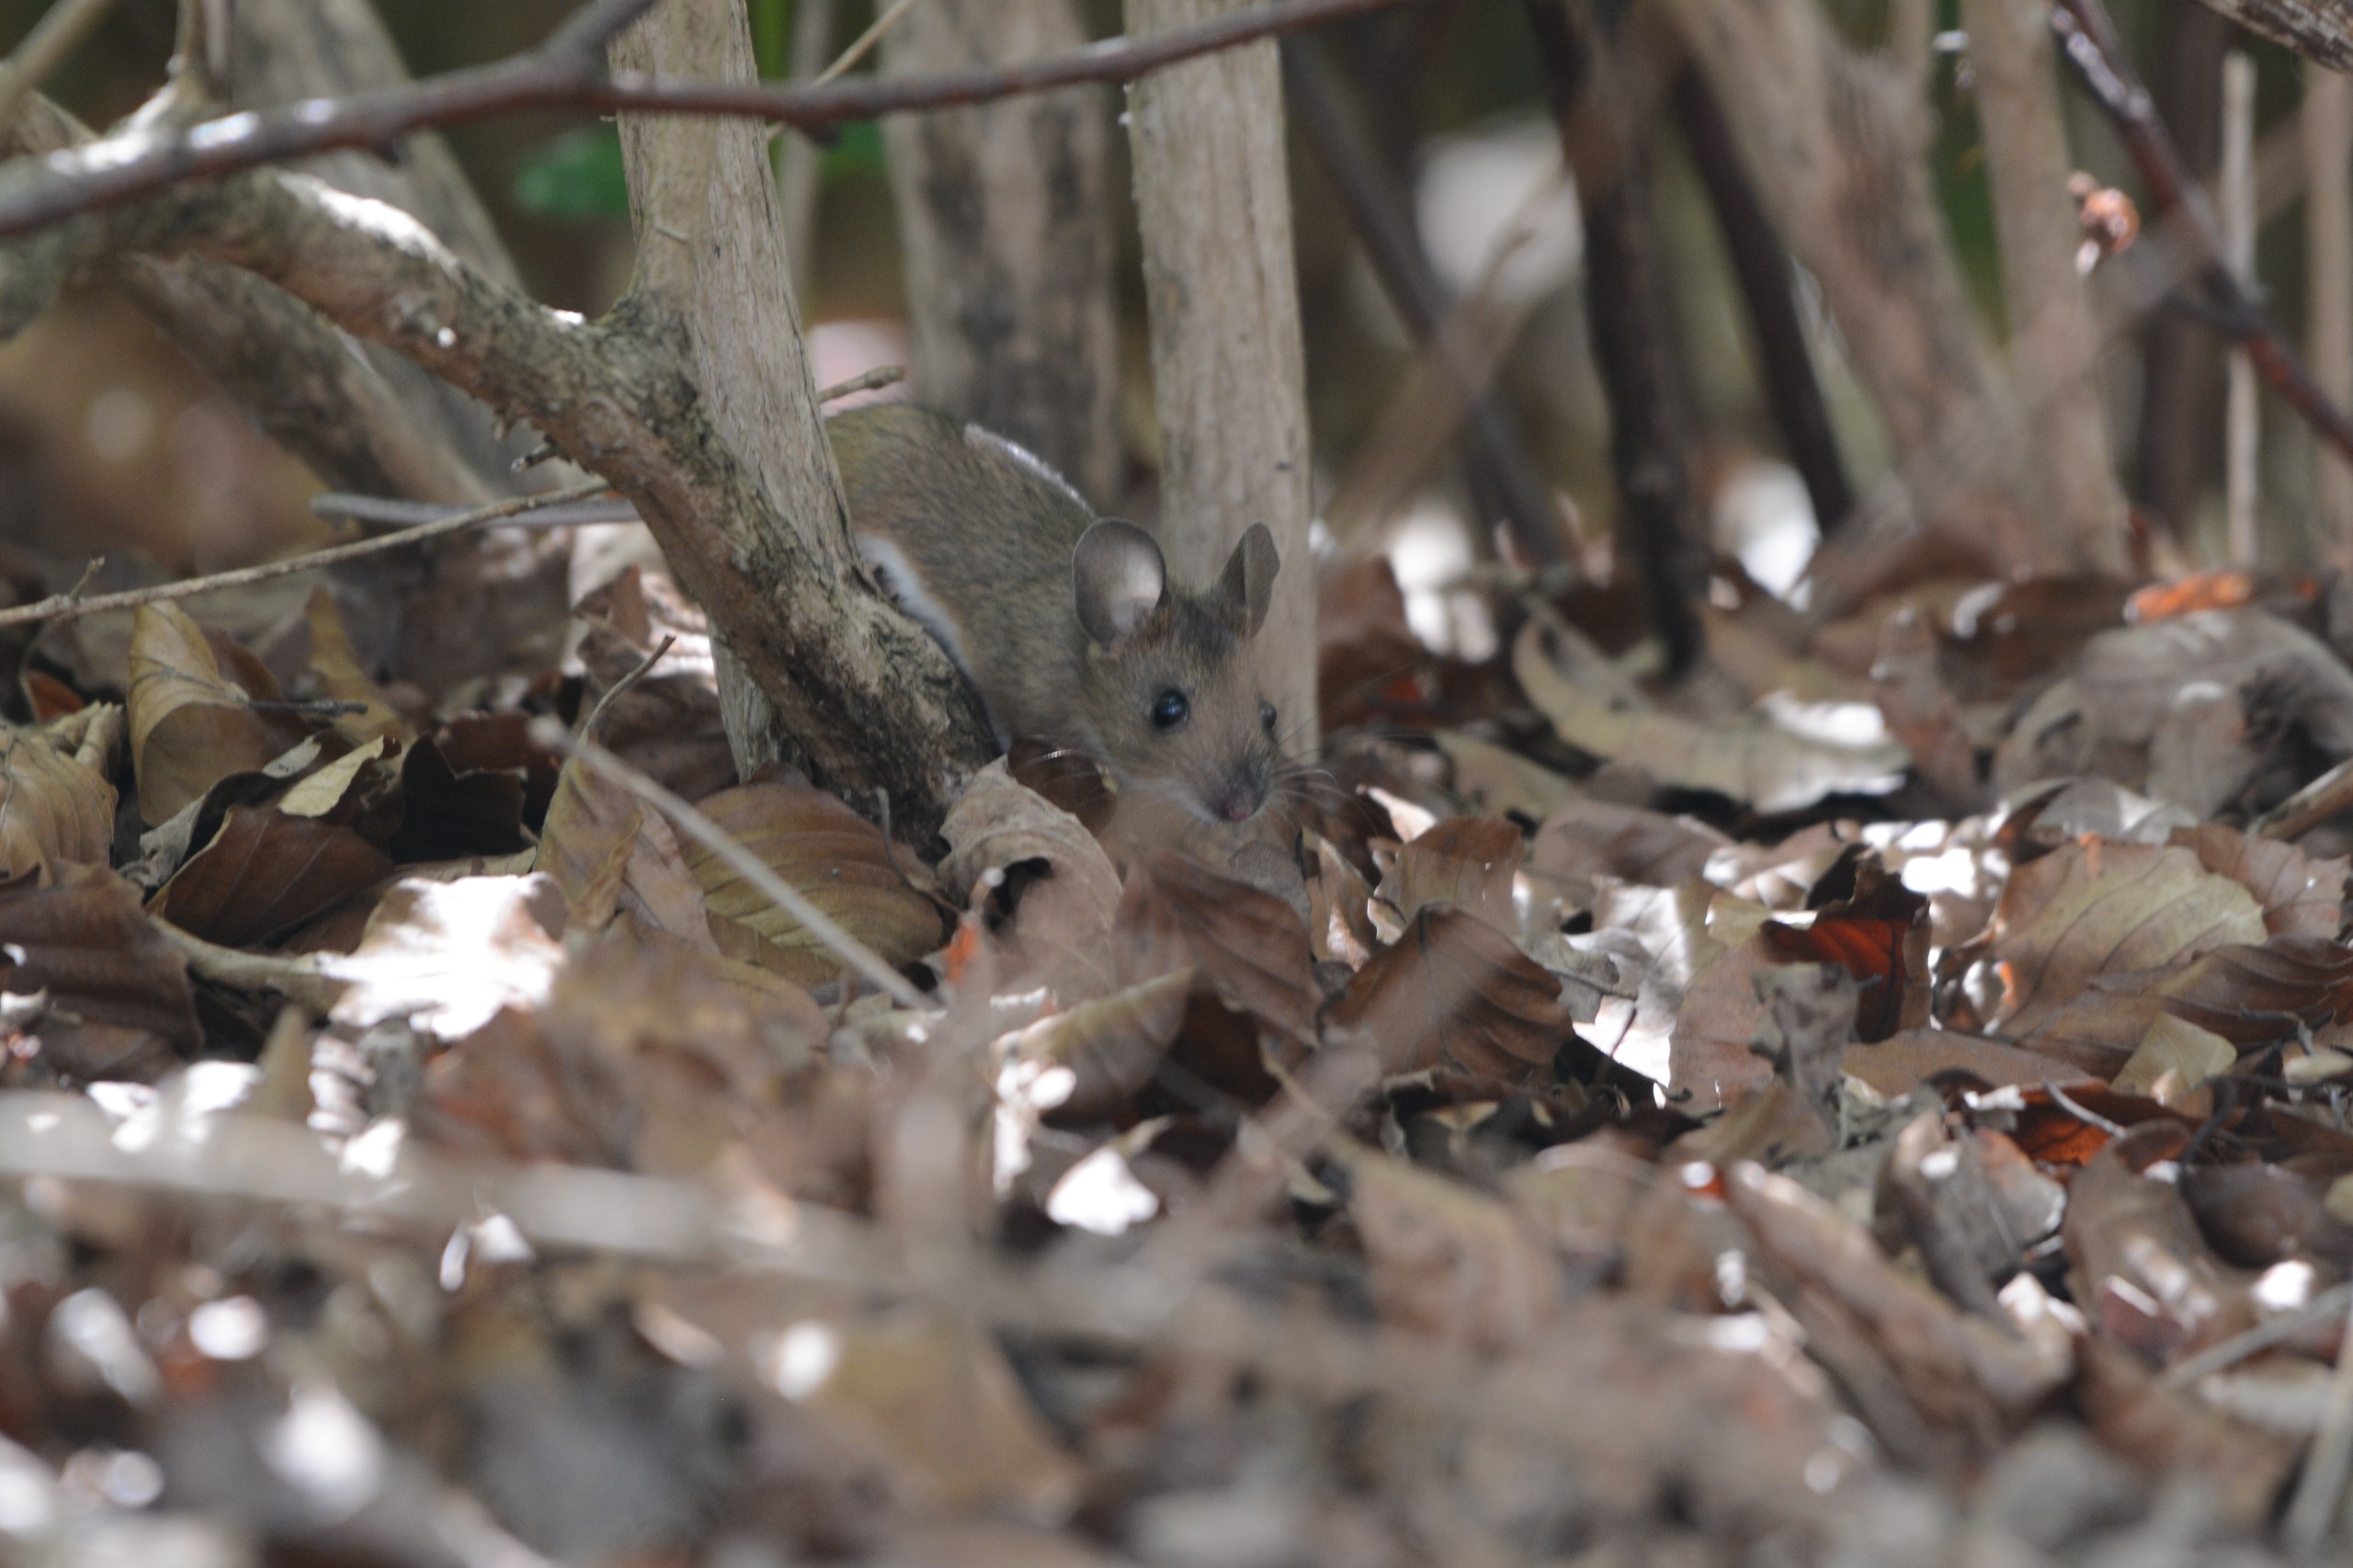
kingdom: Animalia
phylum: Chordata
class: Mammalia
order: Rodentia
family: Muridae
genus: Apodemus
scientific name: Apodemus flavicollis
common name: Halsbåndmus
